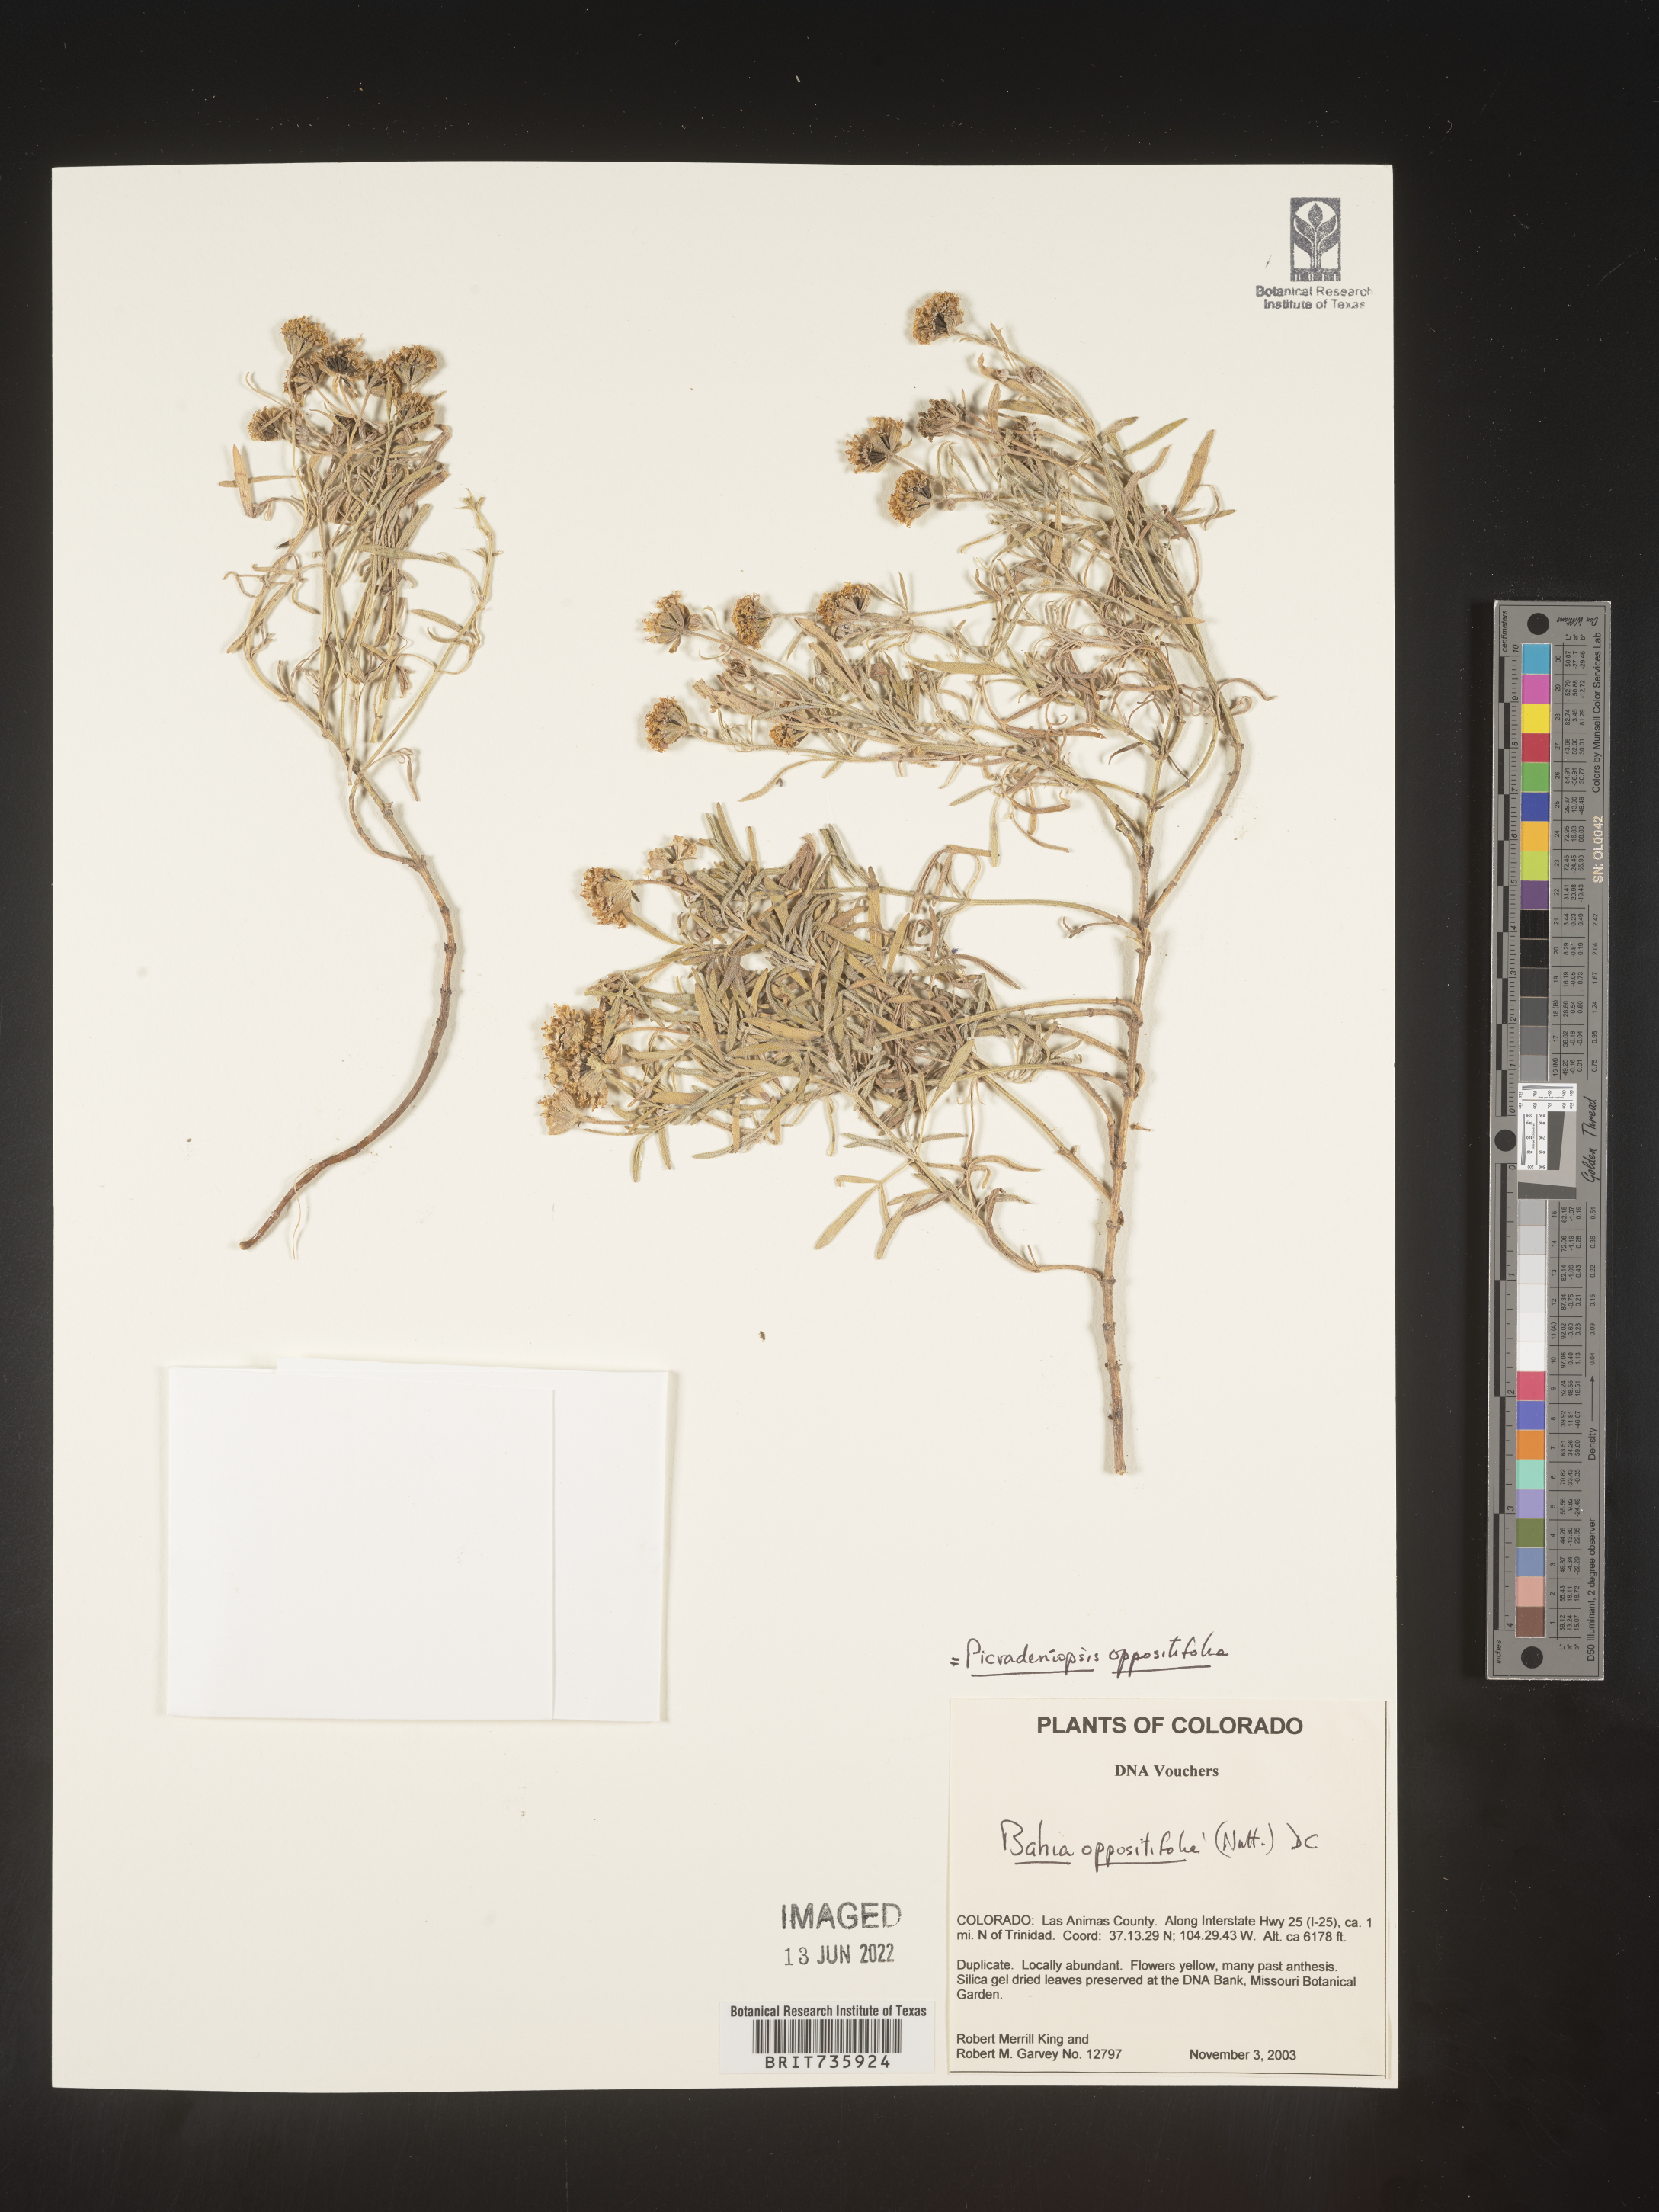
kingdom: Plantae
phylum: Tracheophyta
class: Magnoliopsida
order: Asterales
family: Asteraceae
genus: Bahia
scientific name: Bahia oppositifolia
